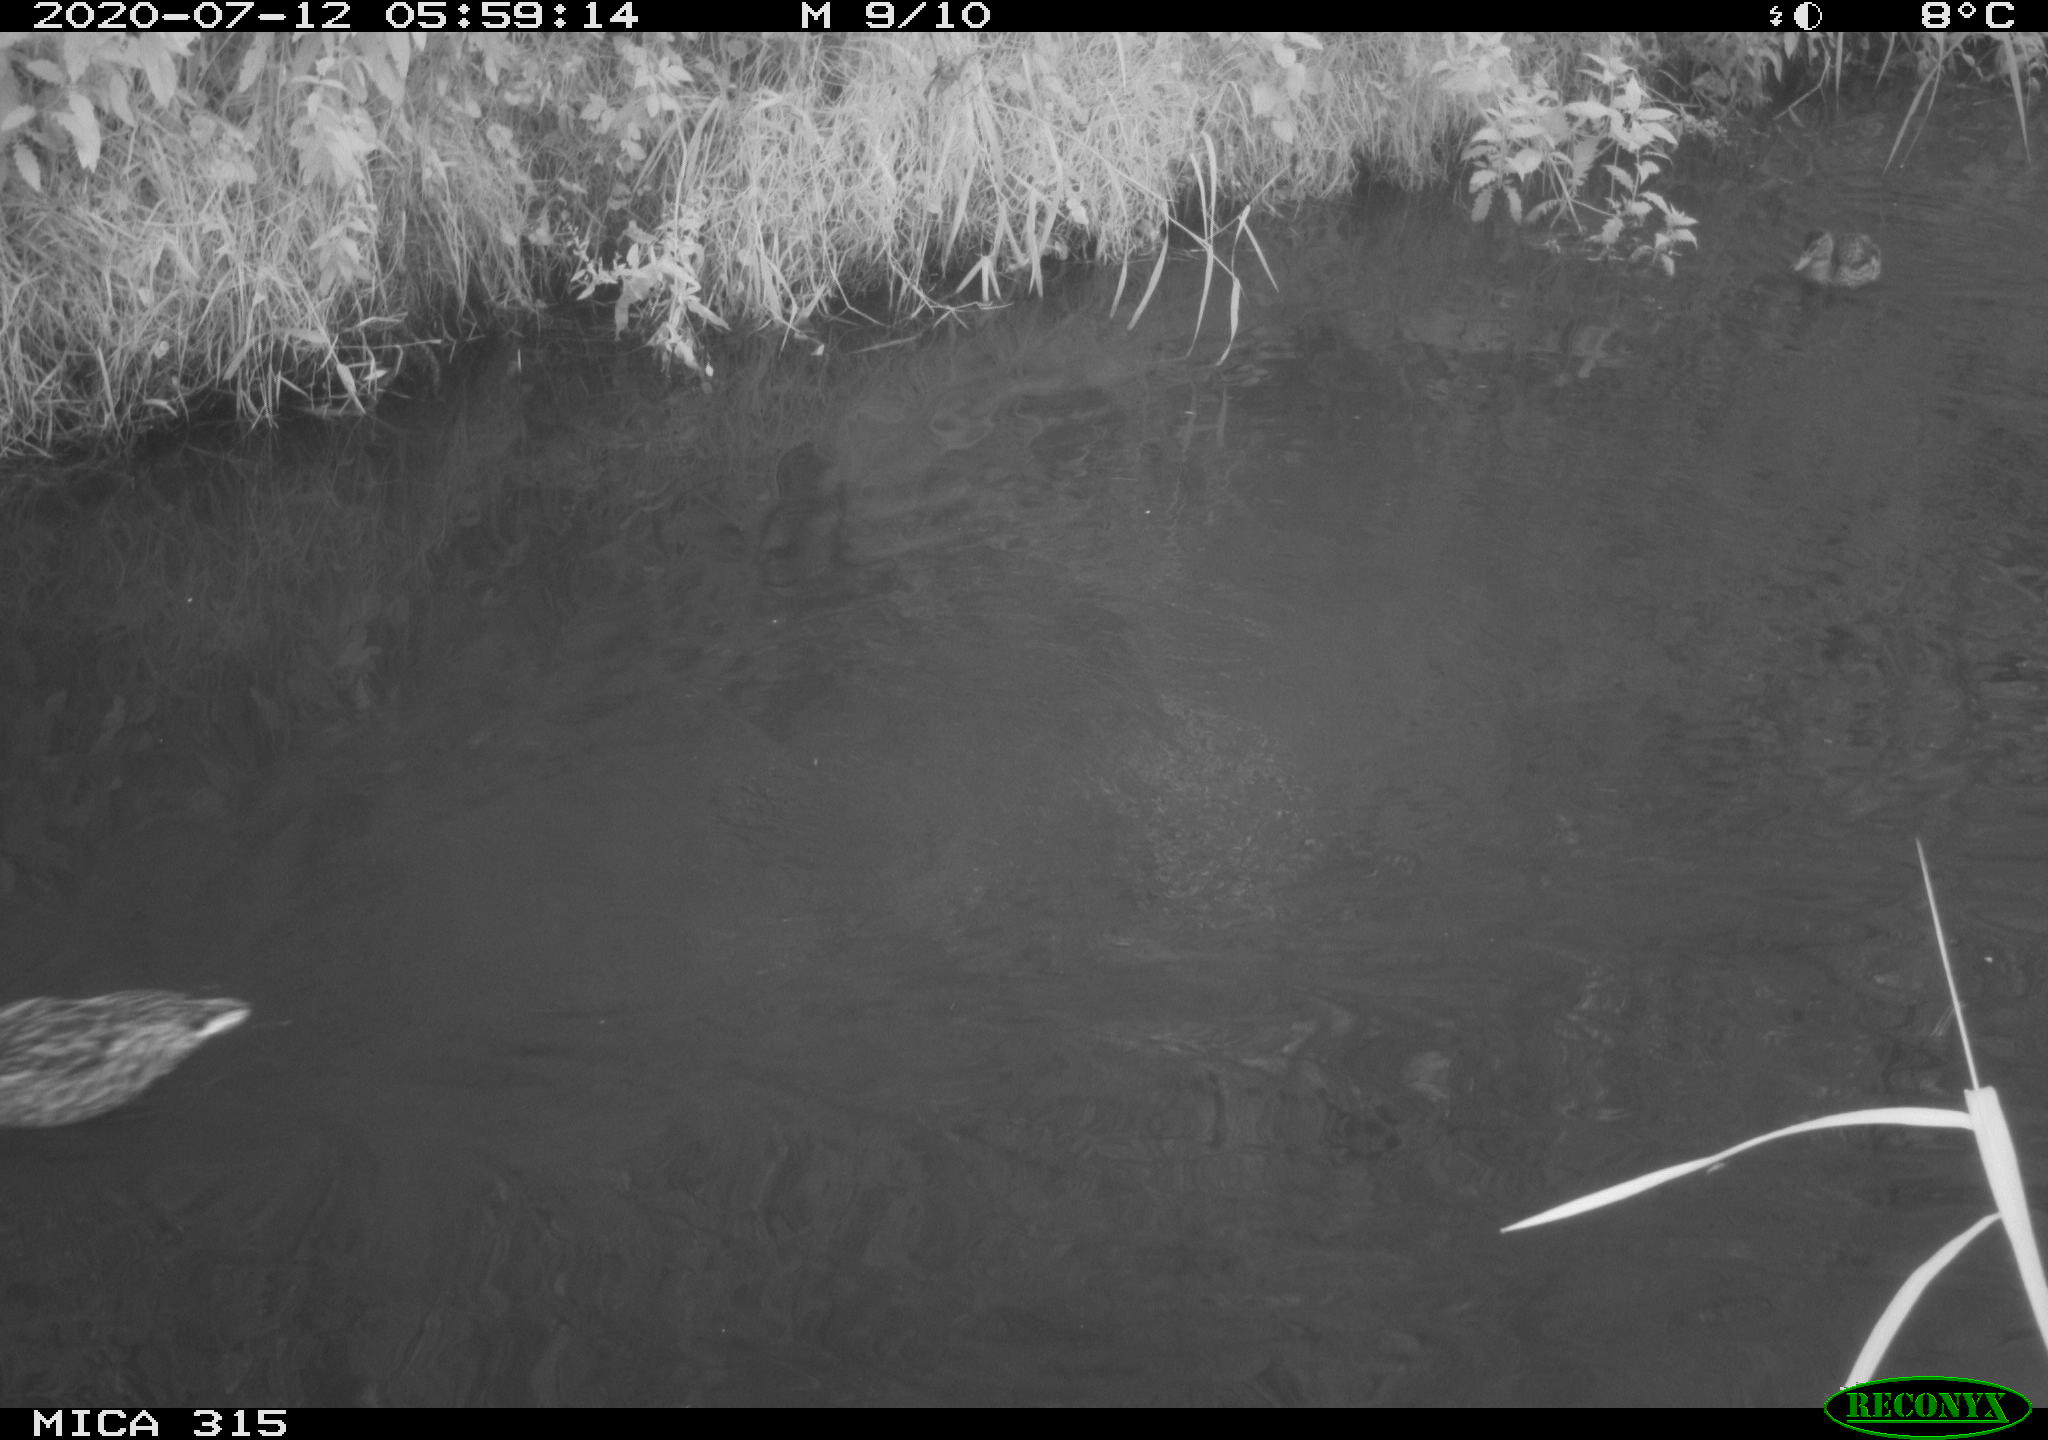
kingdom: Animalia
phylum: Chordata
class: Aves
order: Anseriformes
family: Anatidae
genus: Anas
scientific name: Anas platyrhynchos
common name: Mallard
